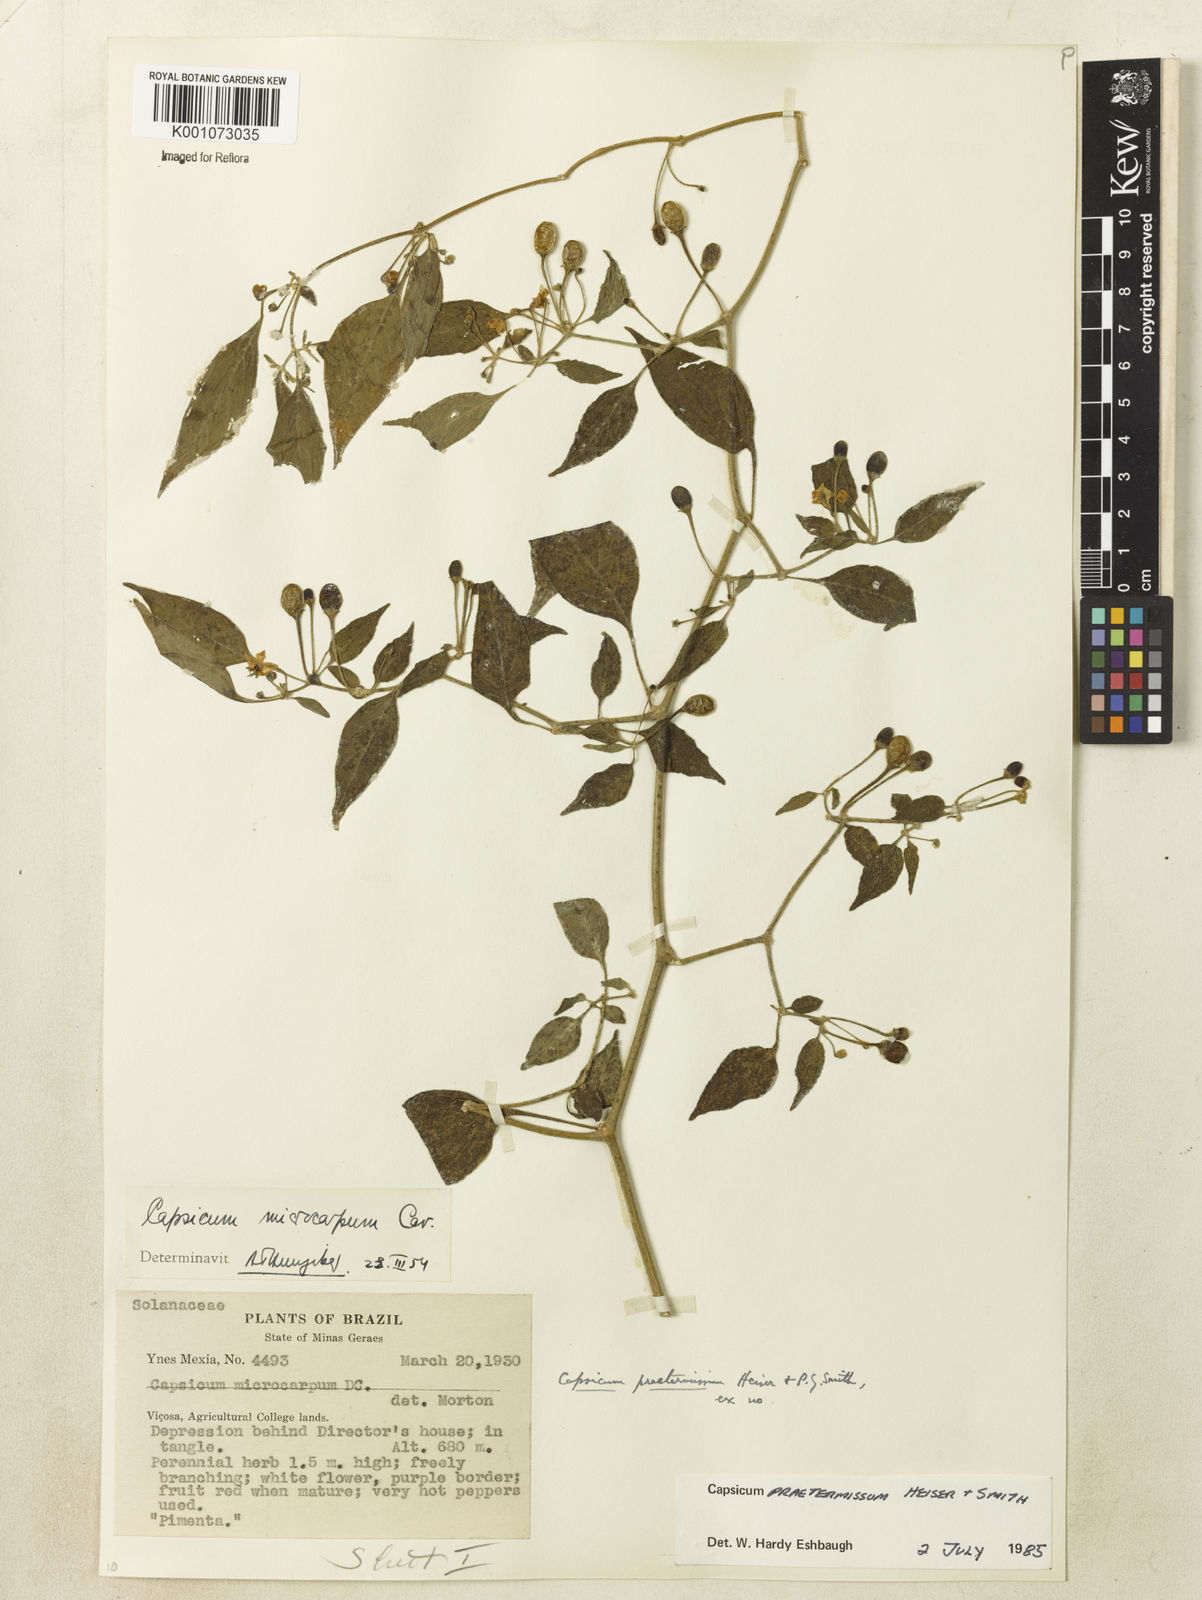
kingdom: Plantae
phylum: Tracheophyta
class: Magnoliopsida
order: Solanales
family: Solanaceae
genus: Capsicum
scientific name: Capsicum rabenii
